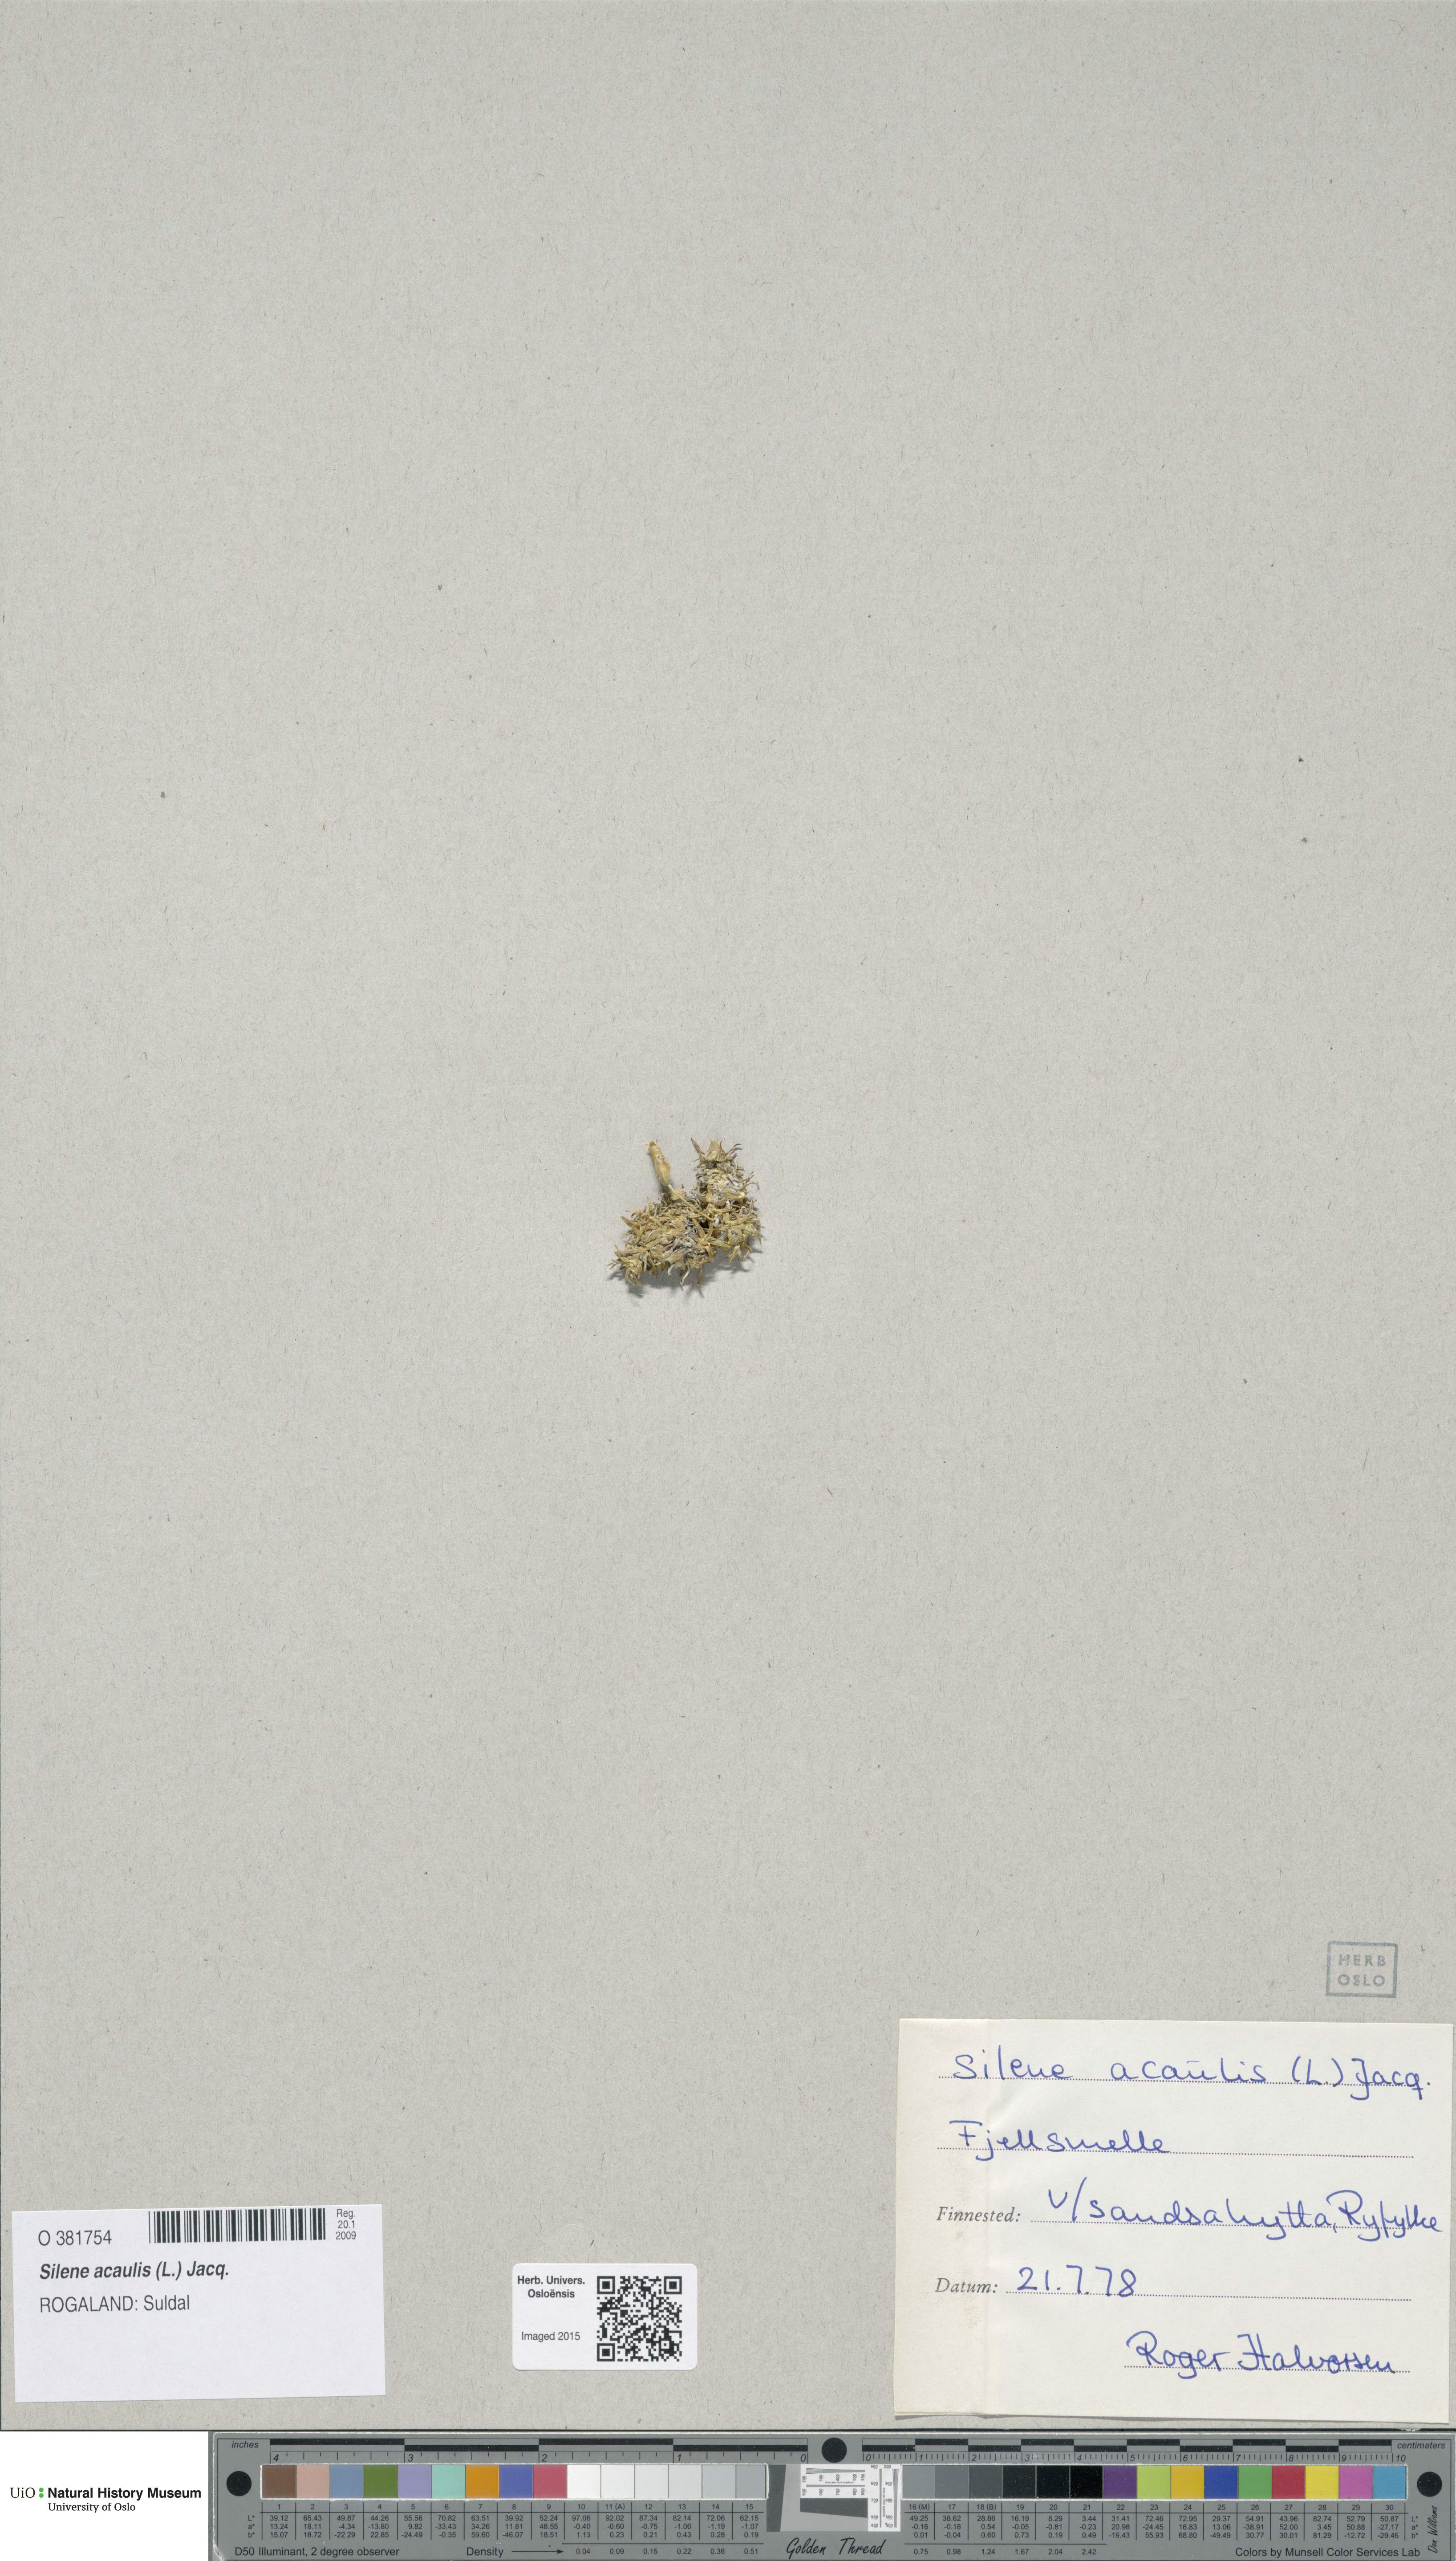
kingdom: Plantae
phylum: Tracheophyta
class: Magnoliopsida
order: Caryophyllales
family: Caryophyllaceae
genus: Silene
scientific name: Silene acaulis
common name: Moss campion
